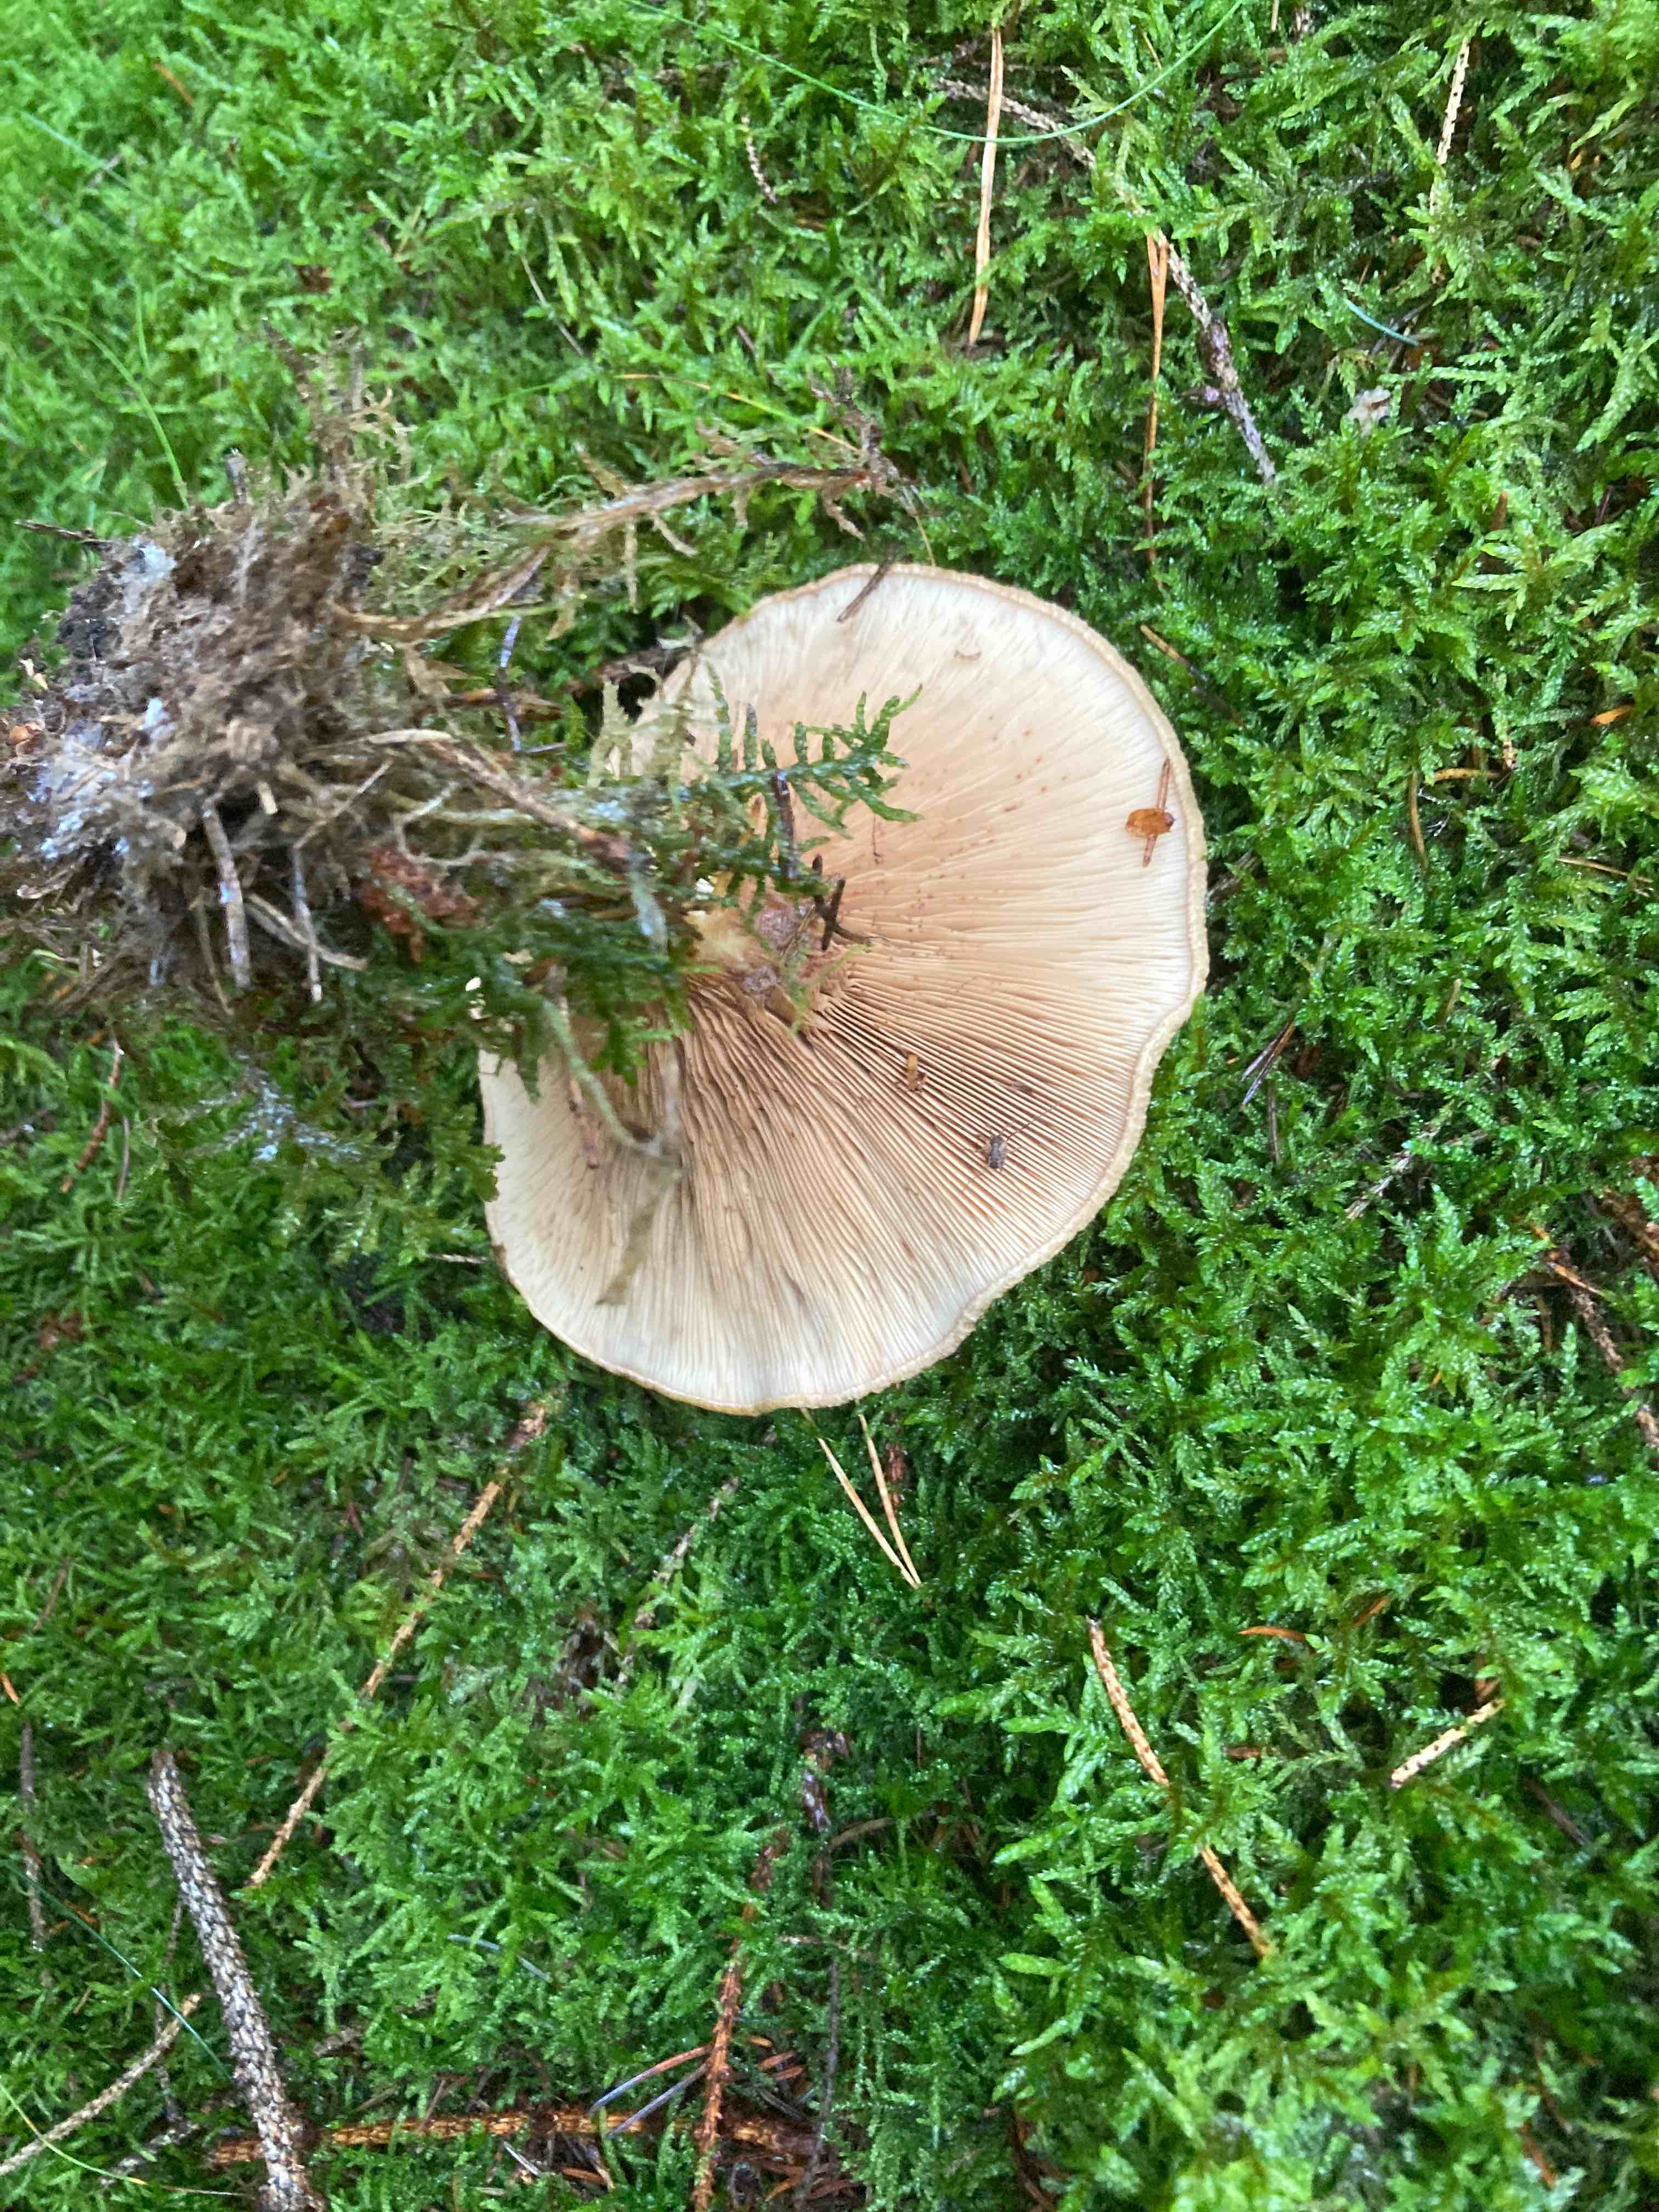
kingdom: Fungi
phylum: Basidiomycota
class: Agaricomycetes
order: Boletales
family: Paxillaceae
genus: Paxillus
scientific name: Paxillus involutus
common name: almindelig netbladhat
